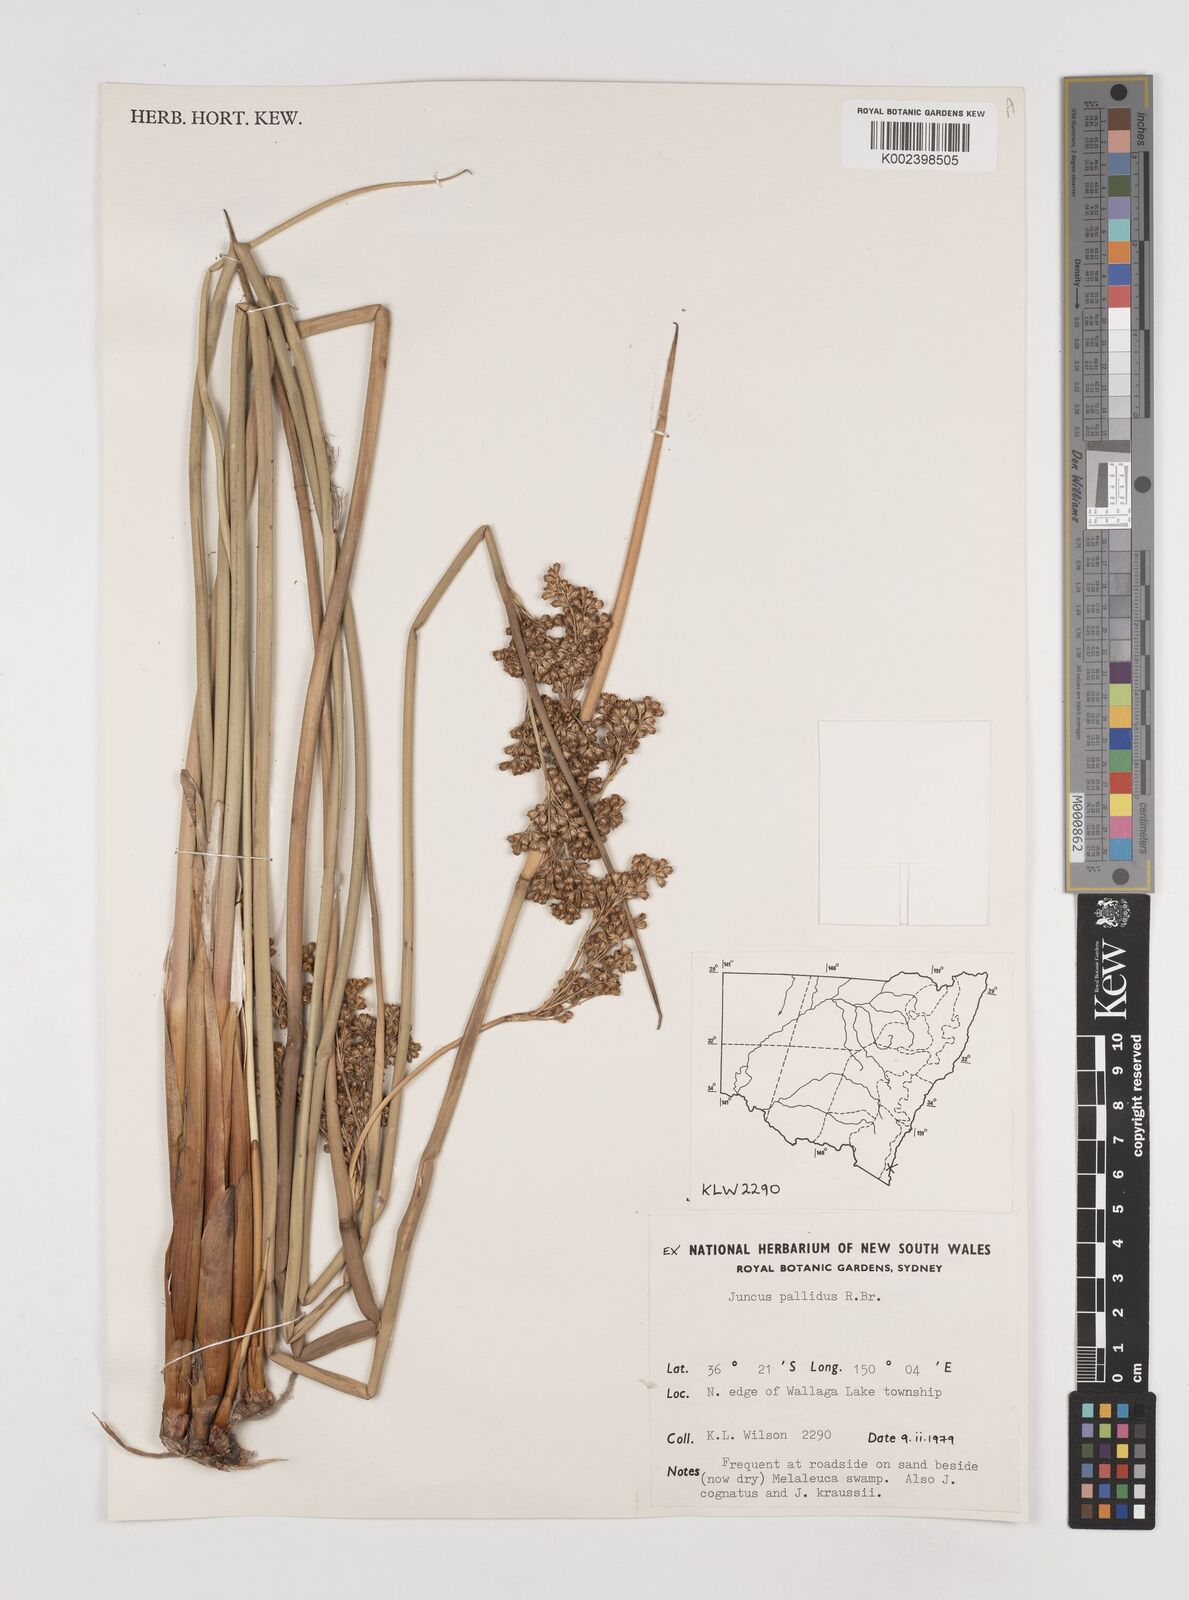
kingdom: Plantae
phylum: Tracheophyta
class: Liliopsida
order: Poales
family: Juncaceae
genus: Juncus
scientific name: Juncus pallidus
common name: Great soft-rush
